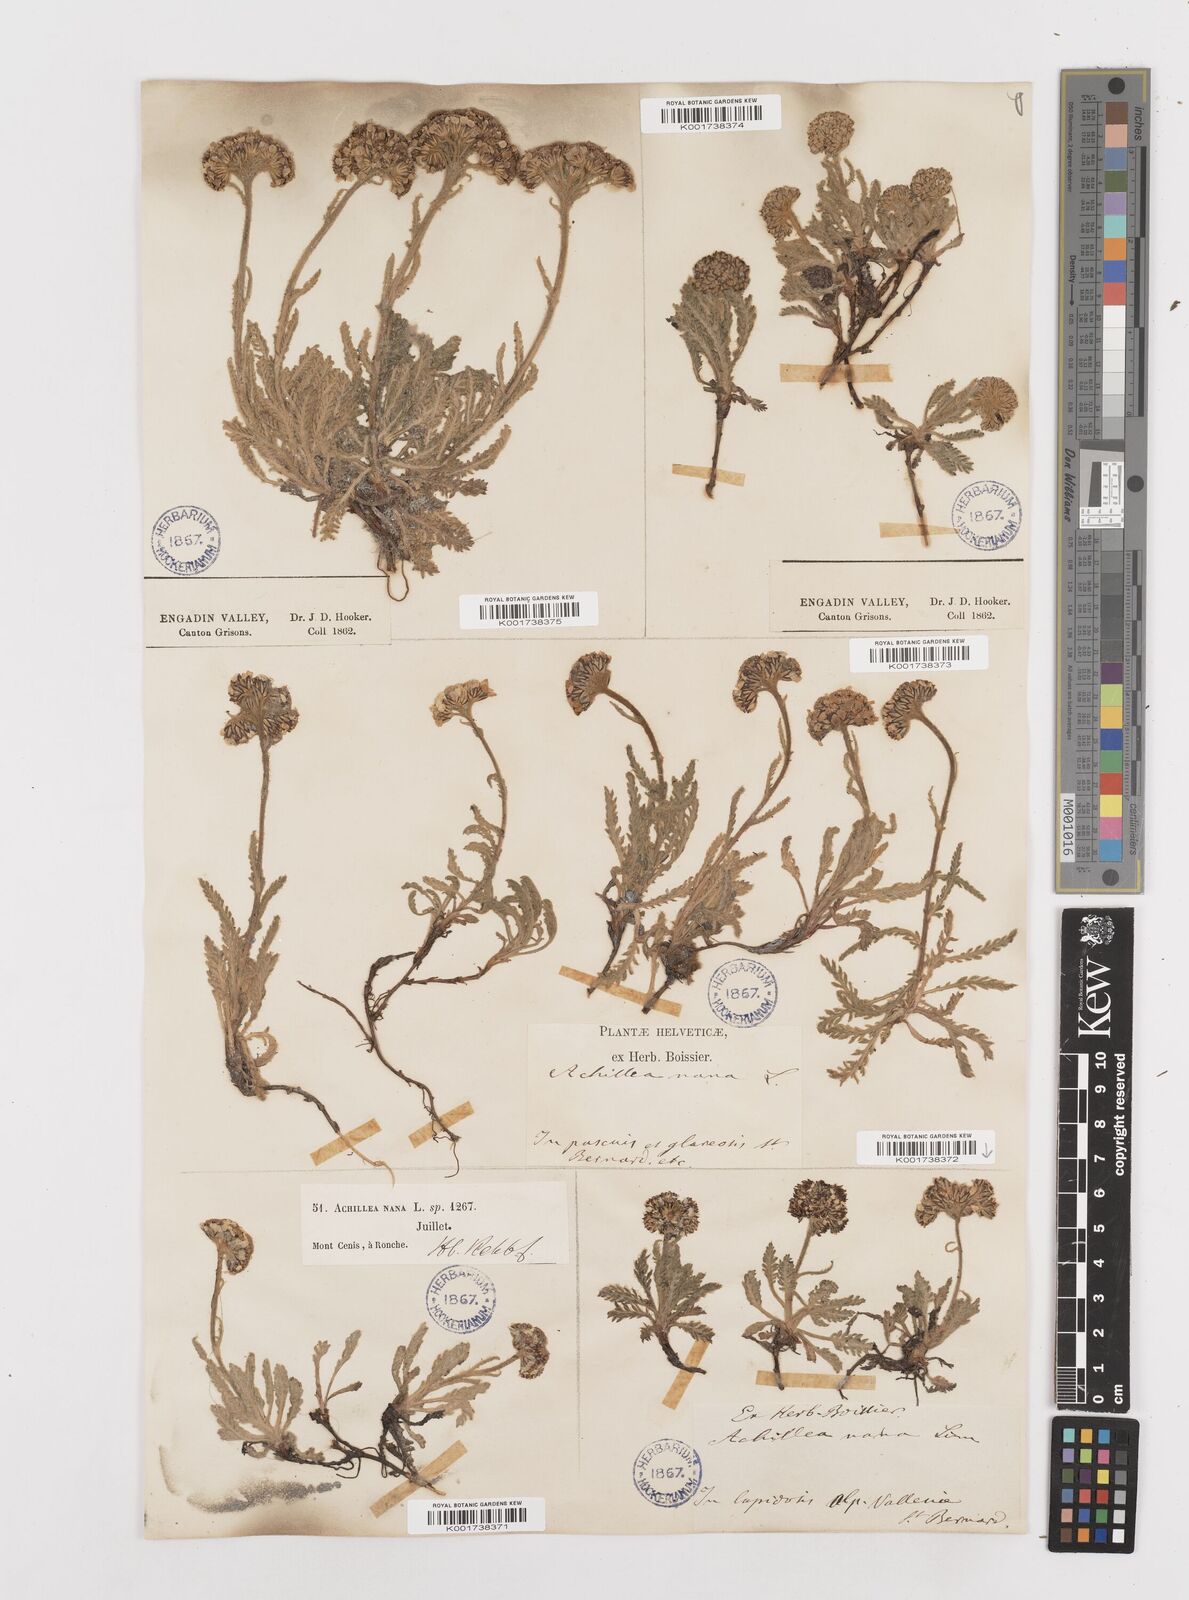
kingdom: Plantae
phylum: Tracheophyta
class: Magnoliopsida
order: Asterales
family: Asteraceae
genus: Achillea
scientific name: Achillea nana
